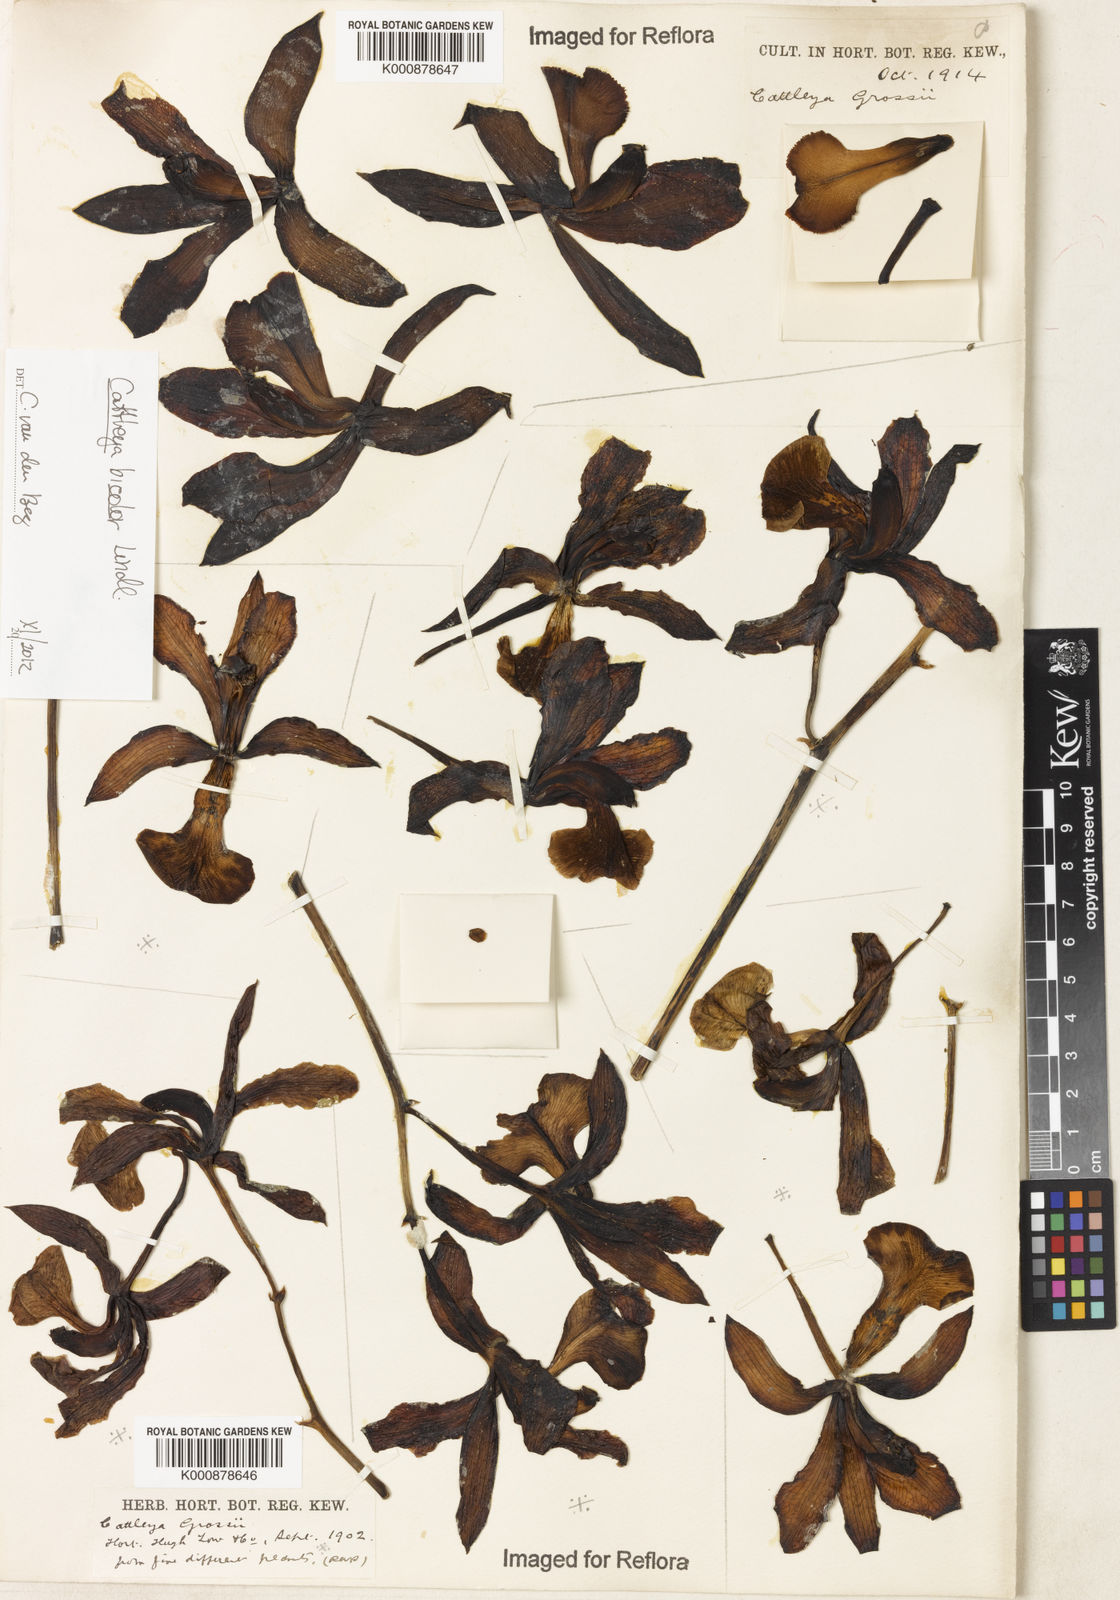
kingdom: Plantae
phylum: Tracheophyta
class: Liliopsida
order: Asparagales
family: Orchidaceae
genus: Cattleya
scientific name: Cattleya bicolor
